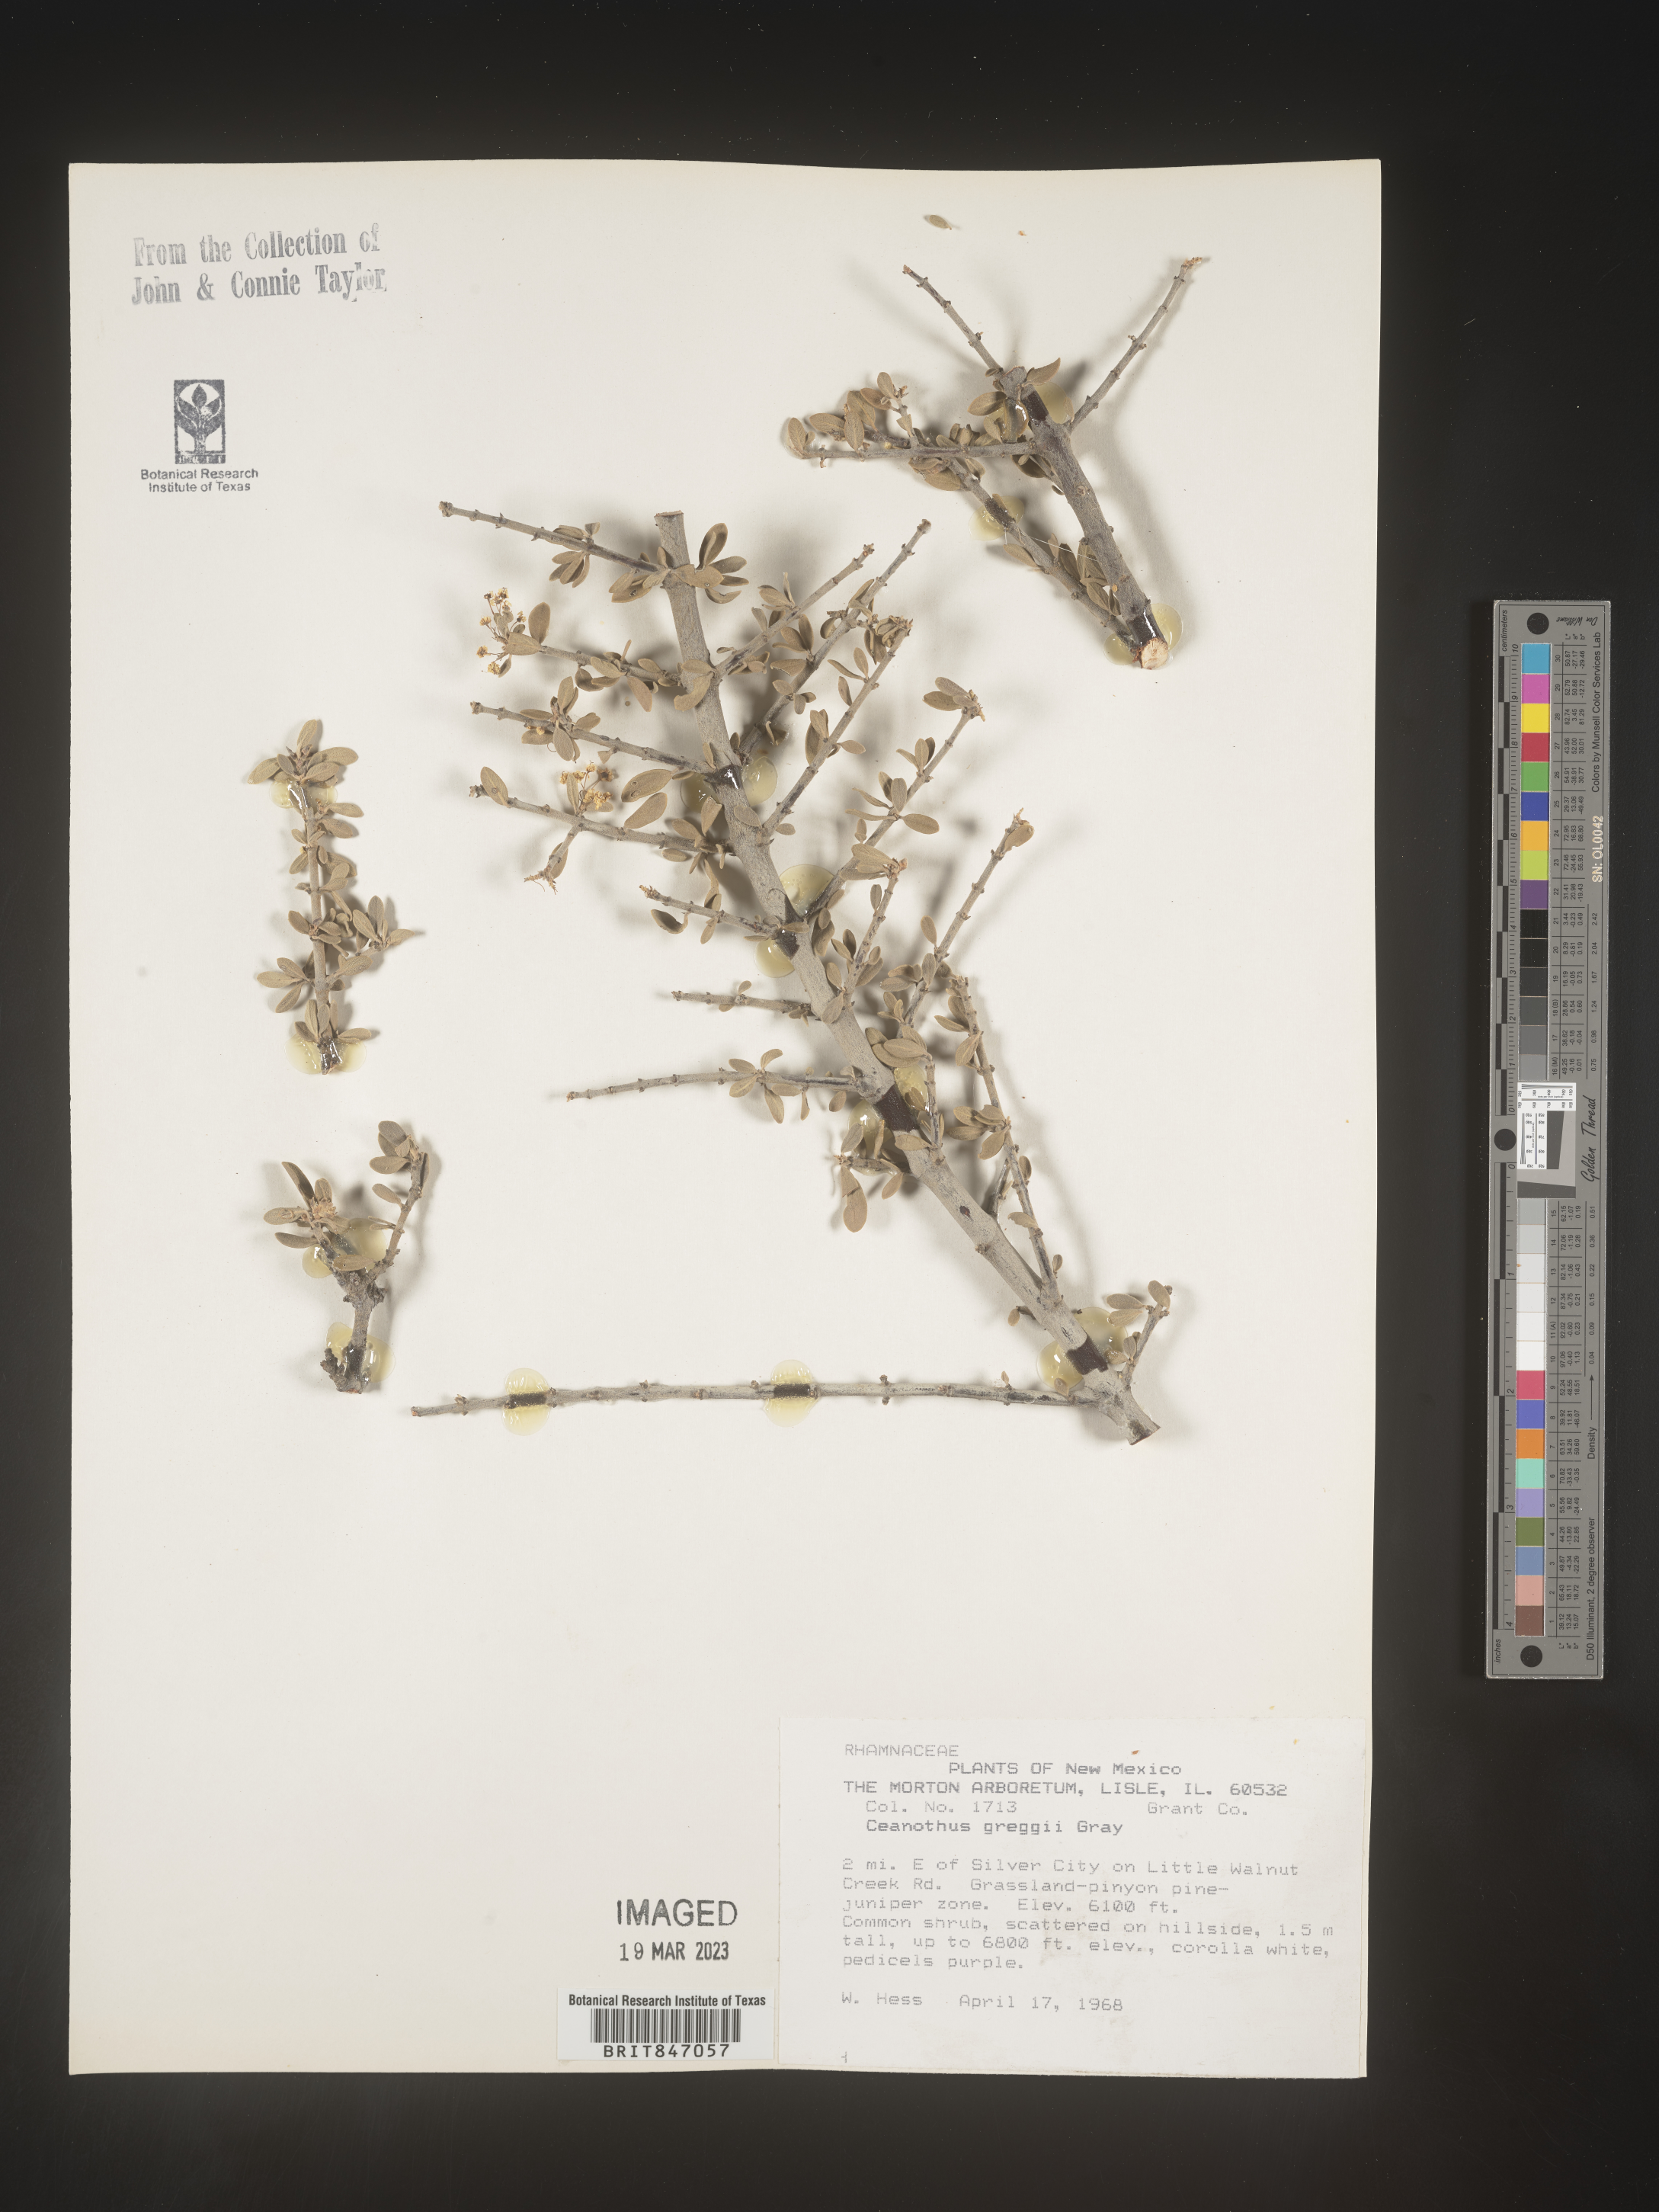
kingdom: Plantae
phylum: Tracheophyta
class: Magnoliopsida
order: Rosales
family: Rhamnaceae
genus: Ceanothus
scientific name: Ceanothus
